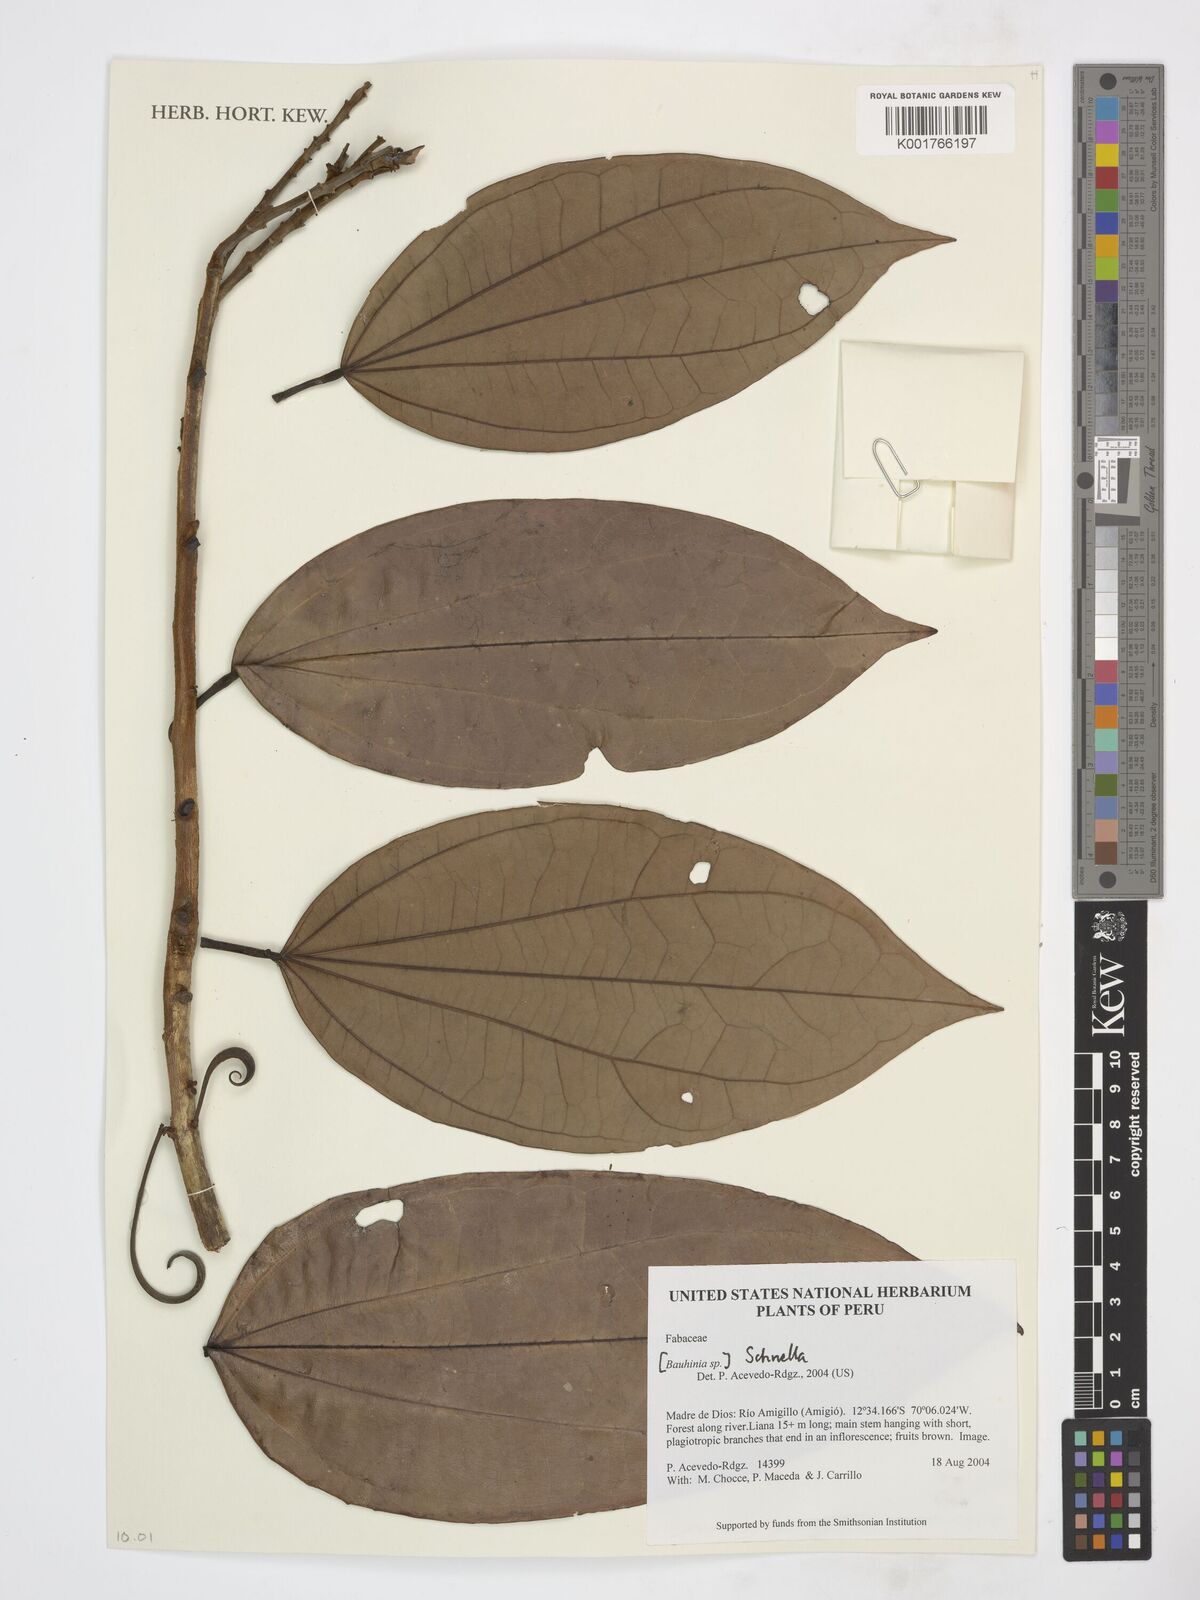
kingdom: Plantae
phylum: Tracheophyta
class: Magnoliopsida
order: Fabales
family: Fabaceae
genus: Schnella
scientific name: Schnella
